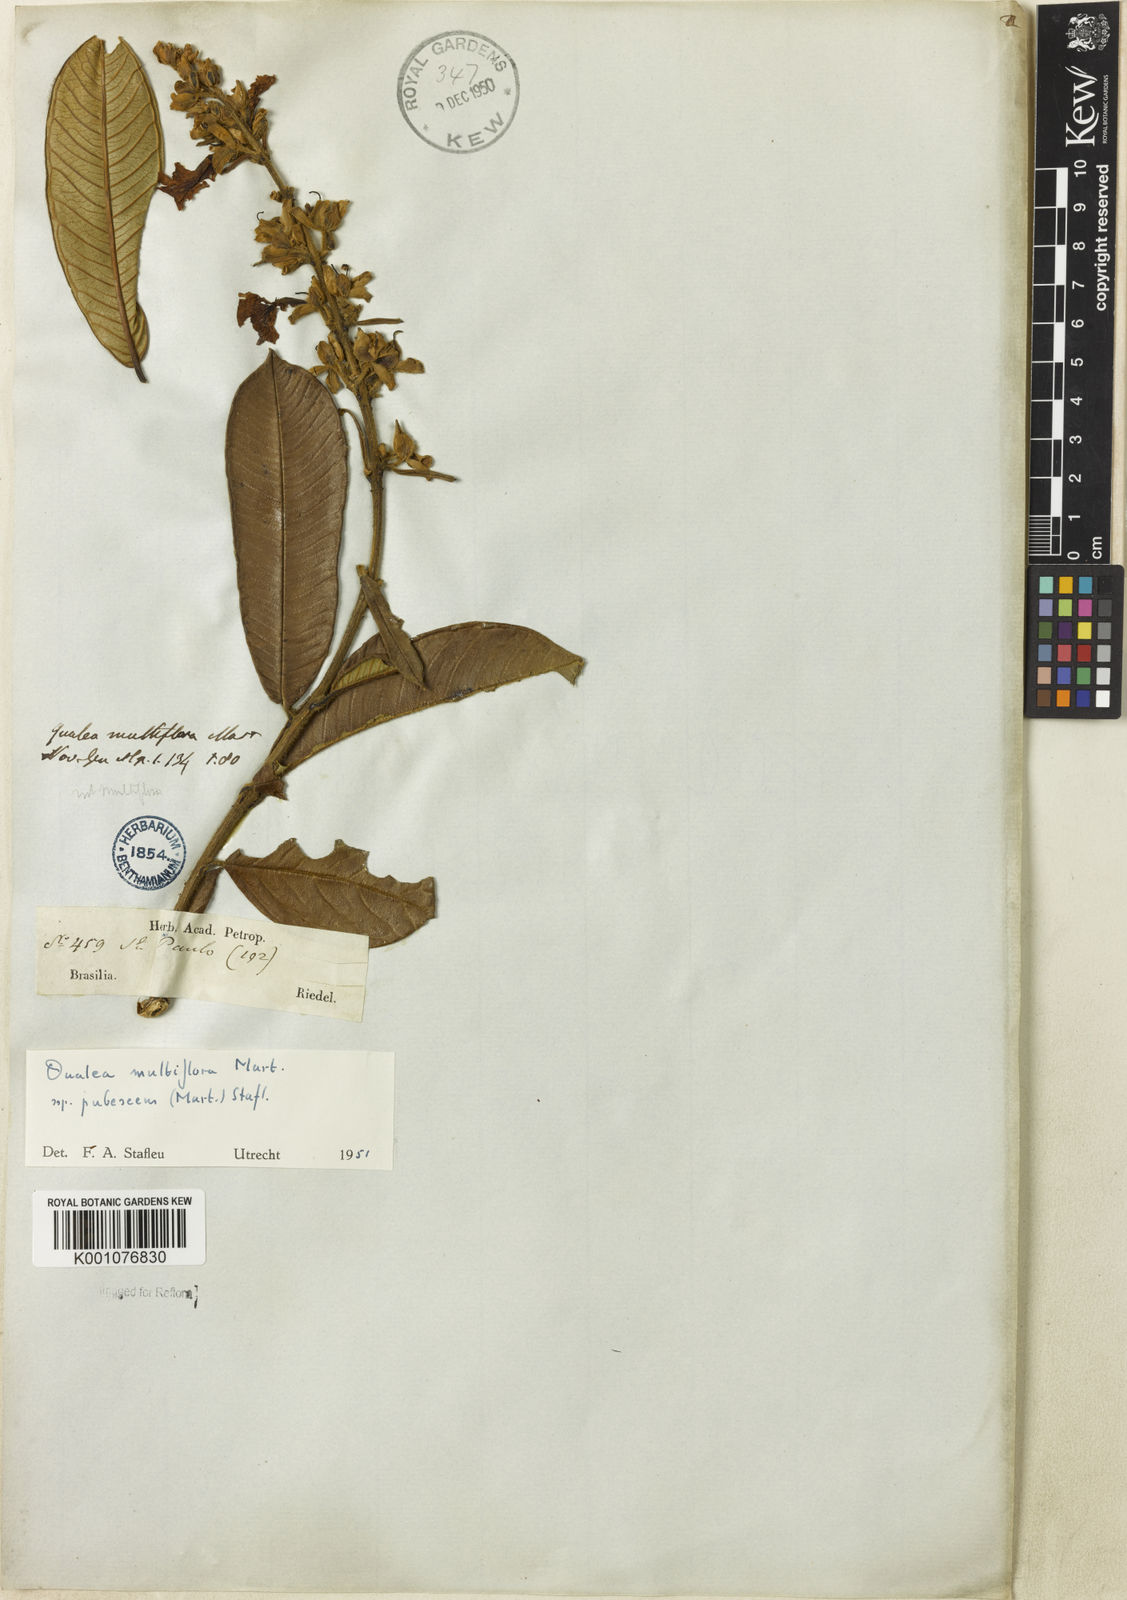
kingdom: Plantae
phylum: Tracheophyta
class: Magnoliopsida
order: Myrtales
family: Vochysiaceae
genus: Qualea
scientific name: Qualea multiflora
